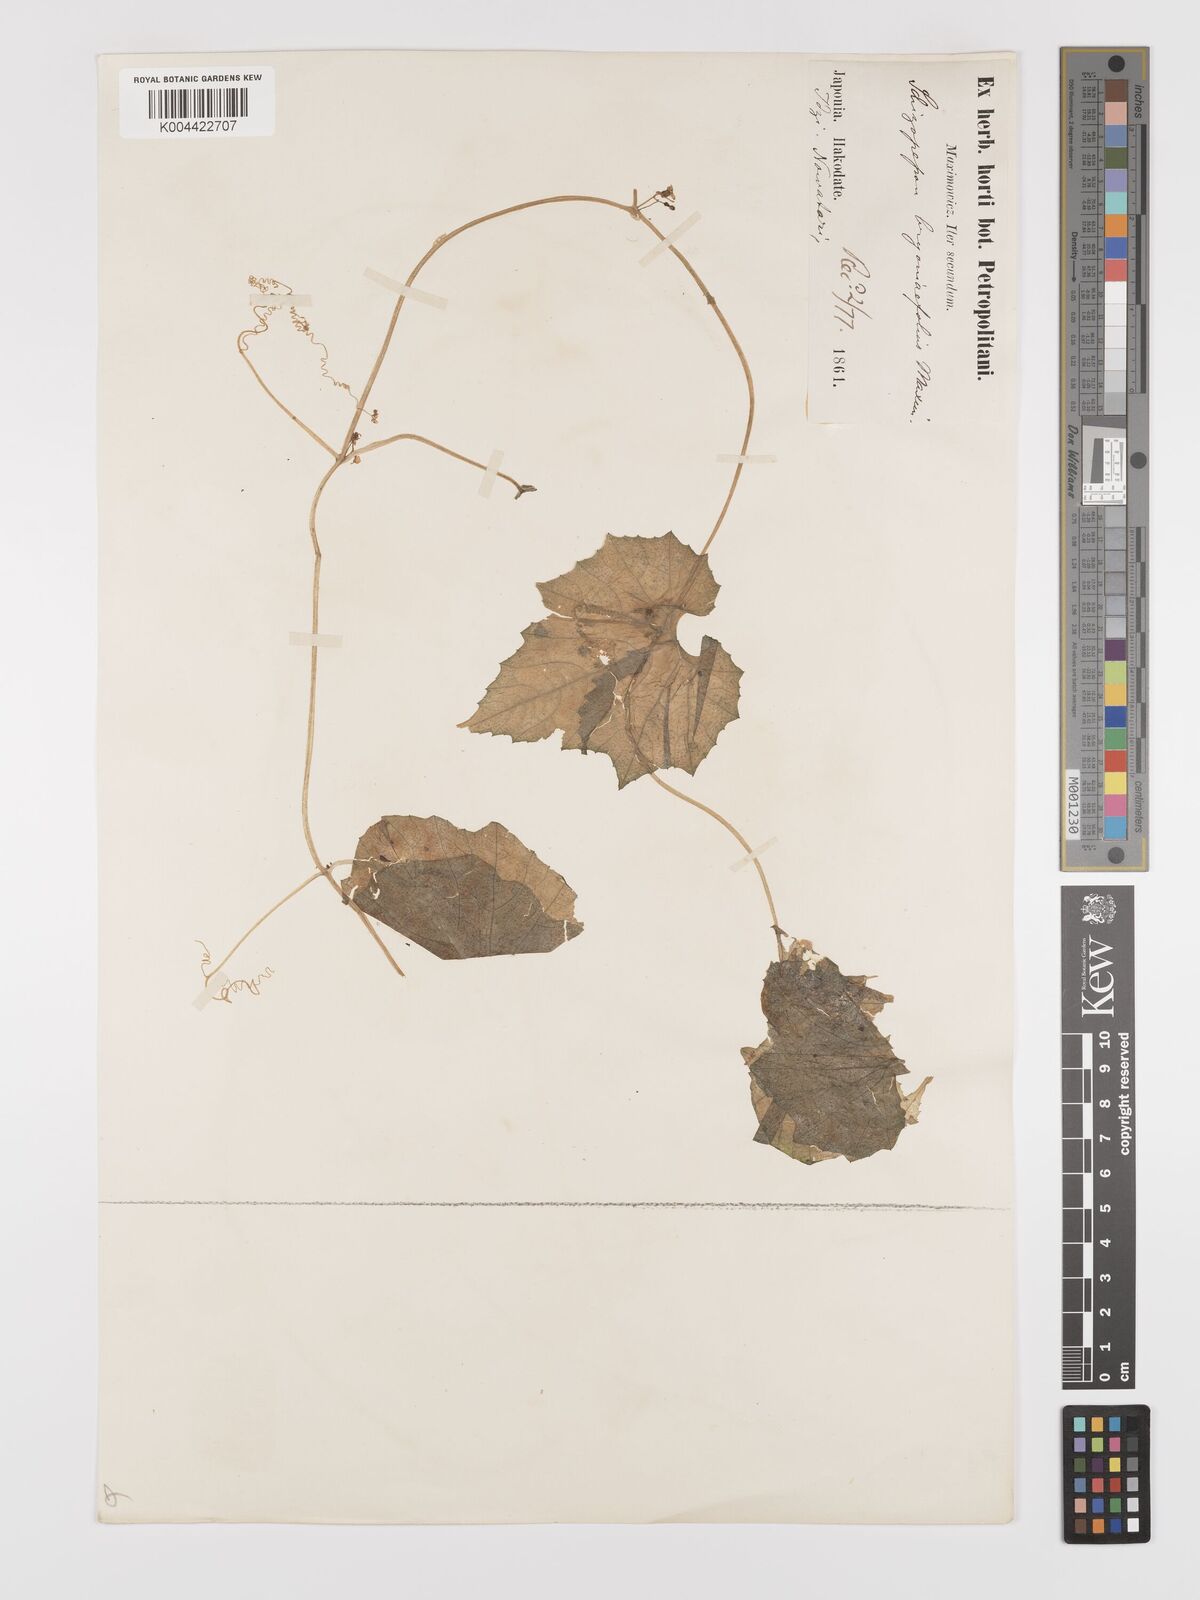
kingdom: Plantae
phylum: Tracheophyta
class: Magnoliopsida
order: Cucurbitales
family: Cucurbitaceae
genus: Schizopepon
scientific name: Schizopepon bryoniifolius
